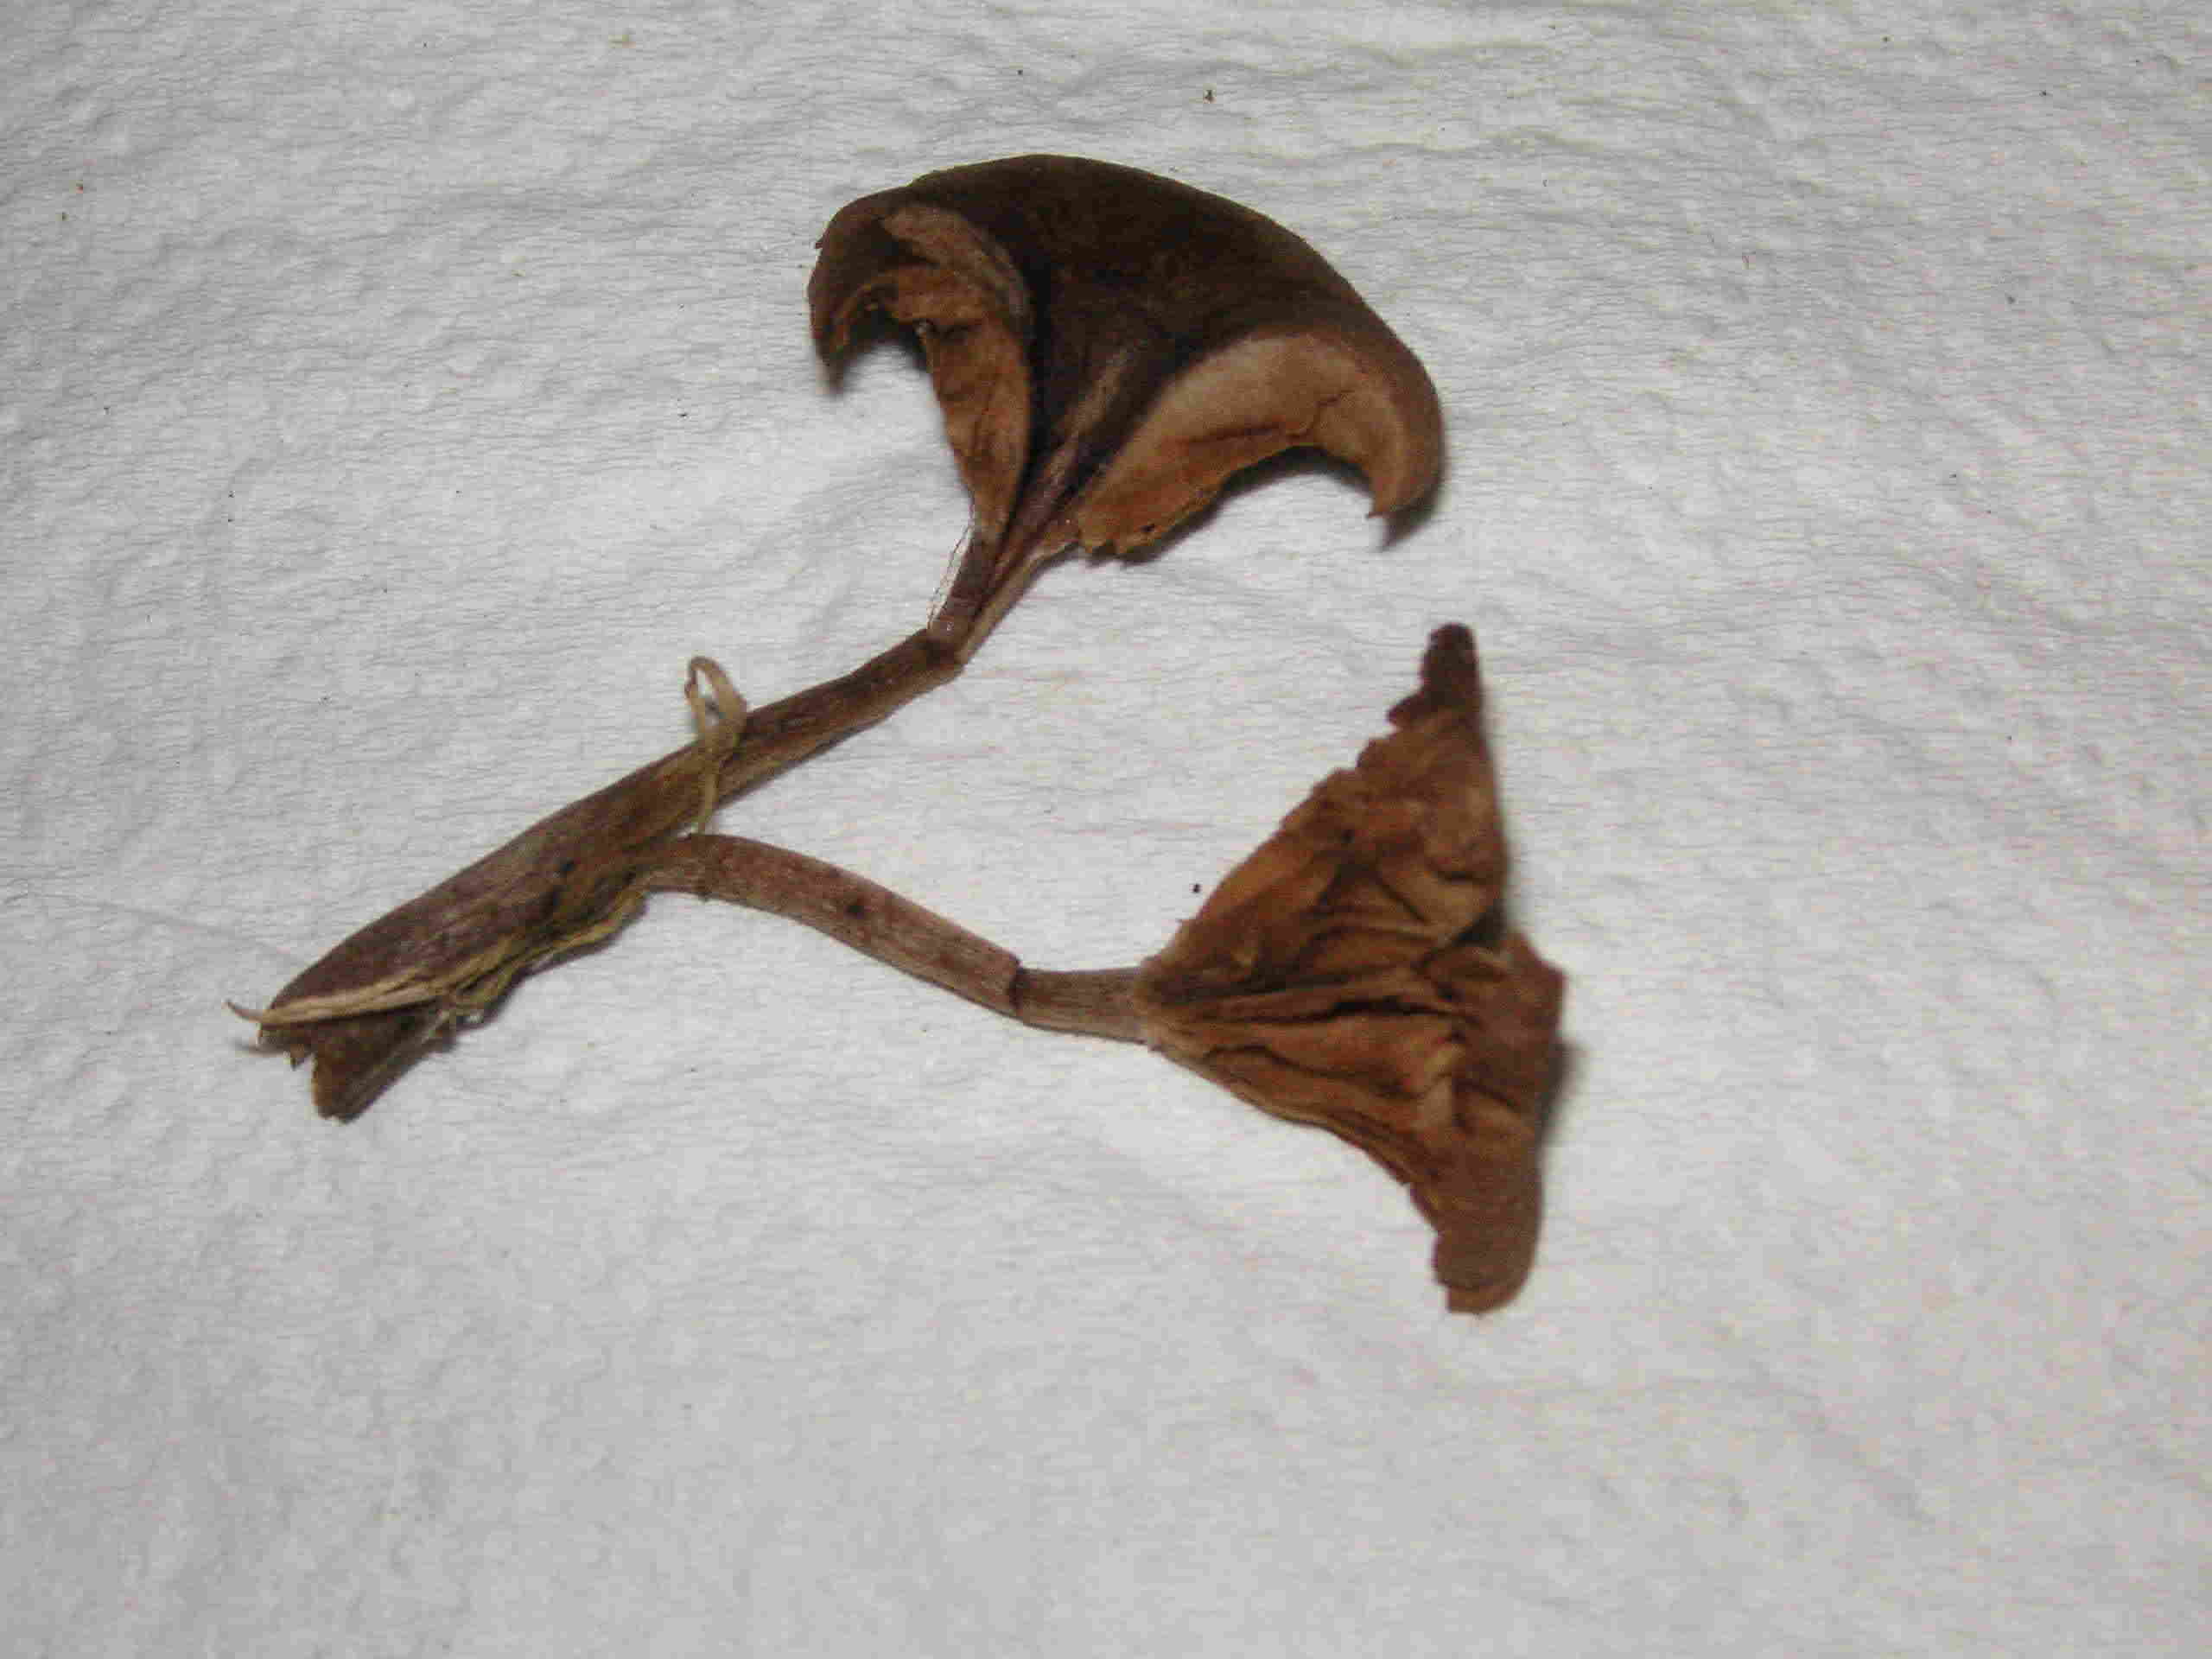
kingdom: Fungi
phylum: Basidiomycota
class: Agaricomycetes
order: Agaricales
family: Pseudoclitocybaceae
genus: Pseudoclitocybe
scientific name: Pseudoclitocybe cyathiformis
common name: almindelig bægertragthat
